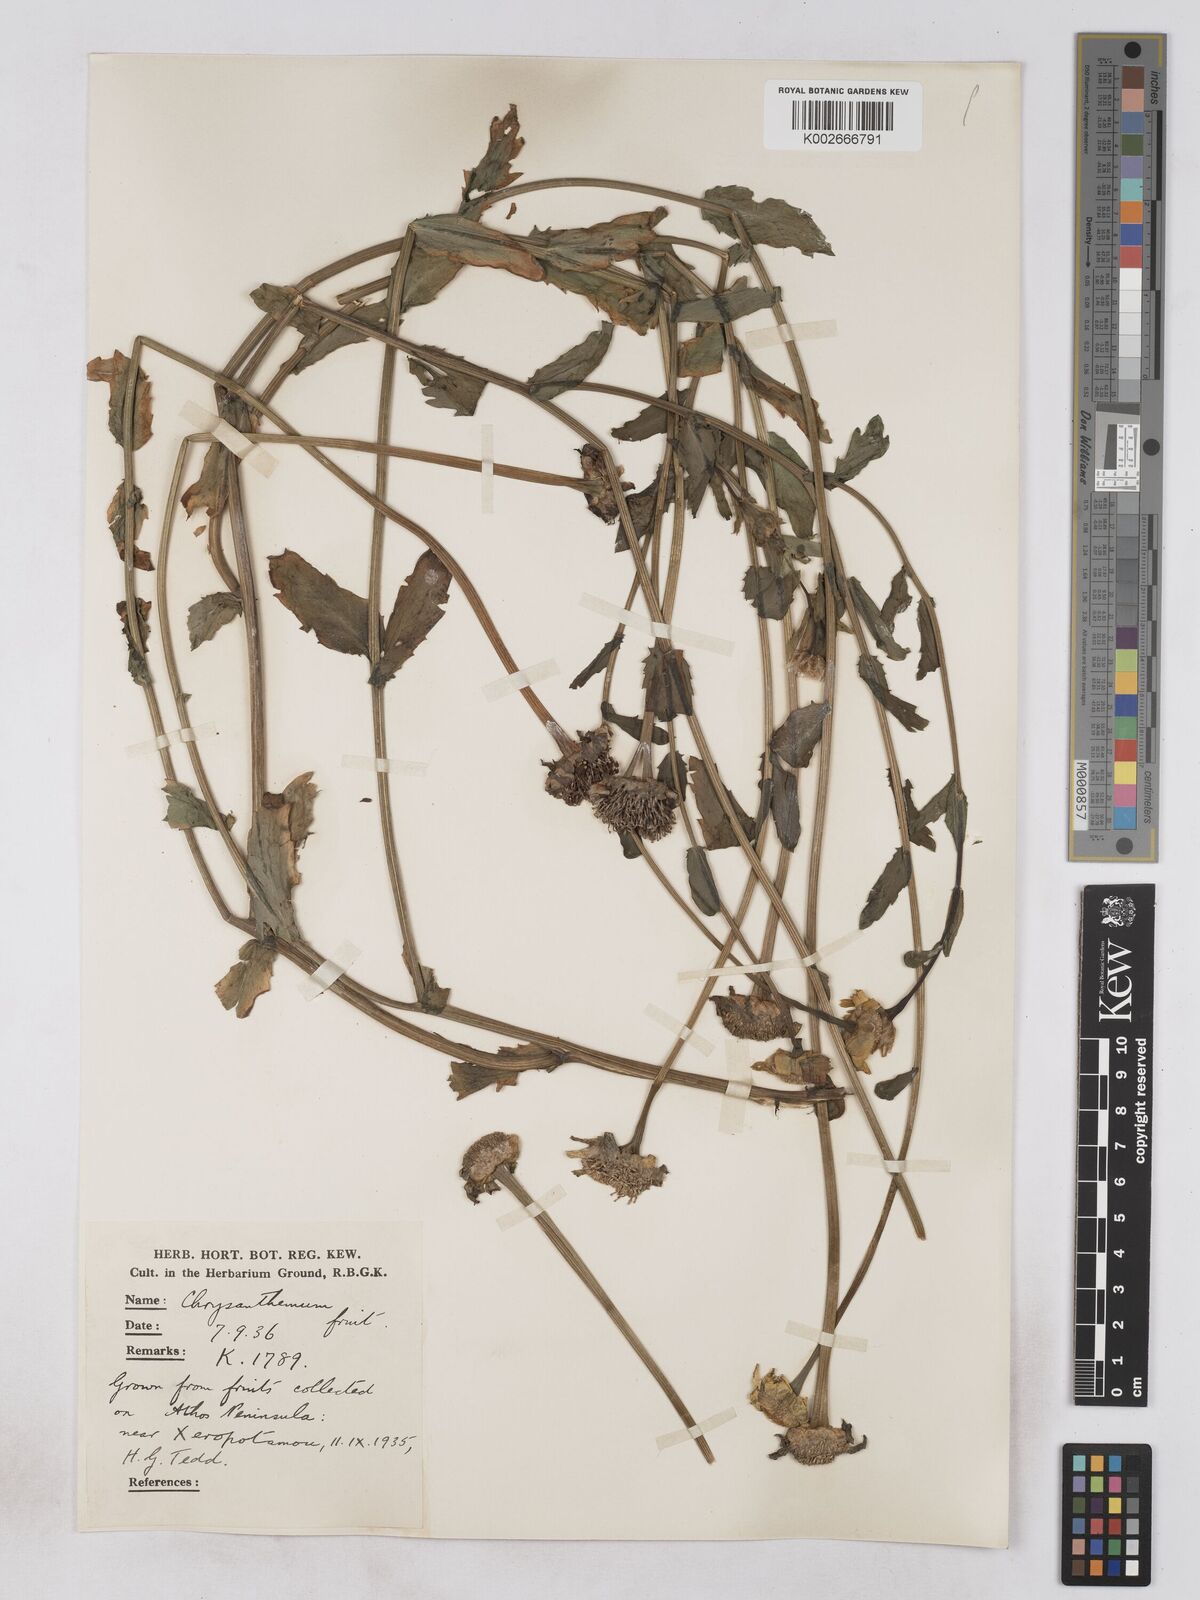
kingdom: Plantae
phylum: Tracheophyta
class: Magnoliopsida
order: Asterales
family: Asteraceae
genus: Glebionis
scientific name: Glebionis segetum
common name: Corndaisy
